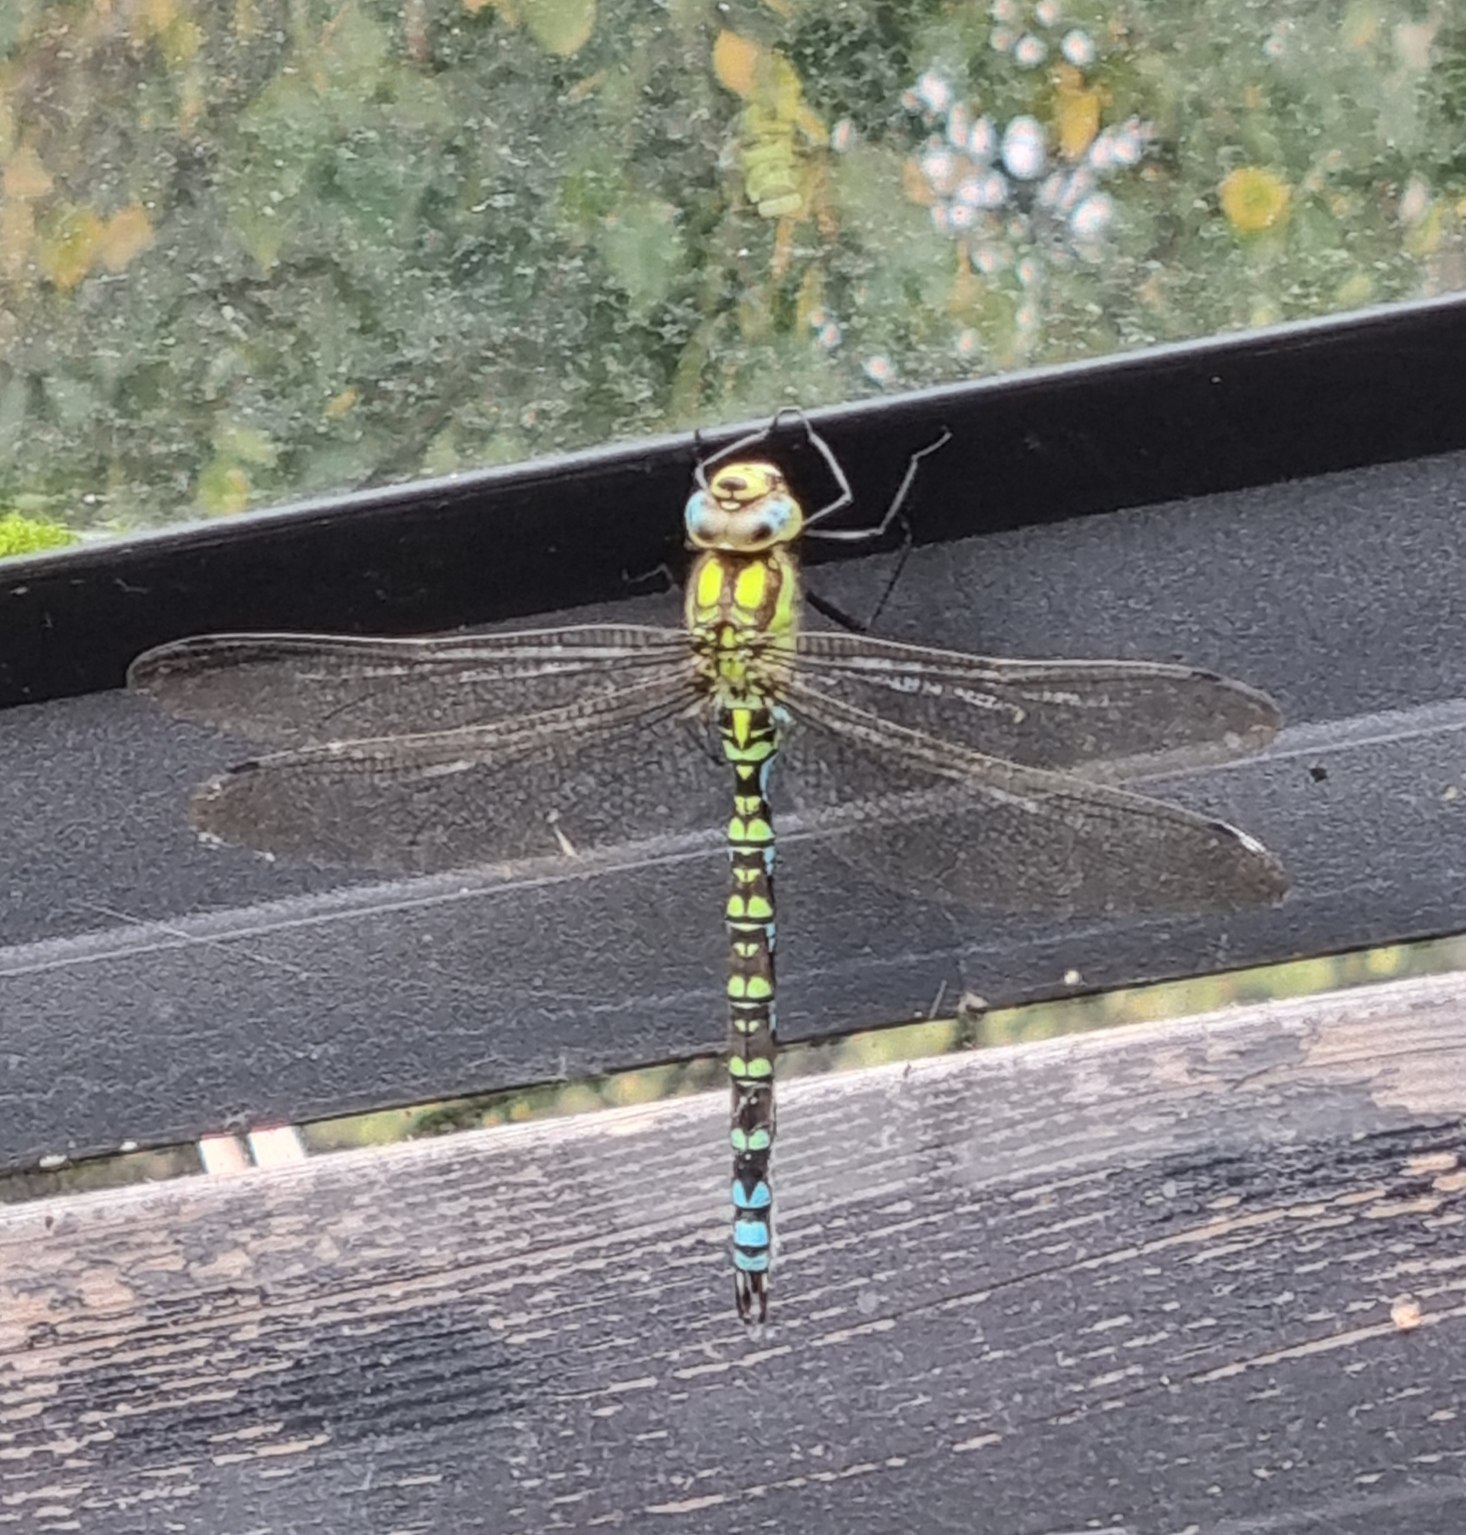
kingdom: Animalia
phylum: Arthropoda
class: Insecta
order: Odonata
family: Aeshnidae
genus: Aeshna
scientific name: Aeshna cyanea
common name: Blå mosaikguldsmed
